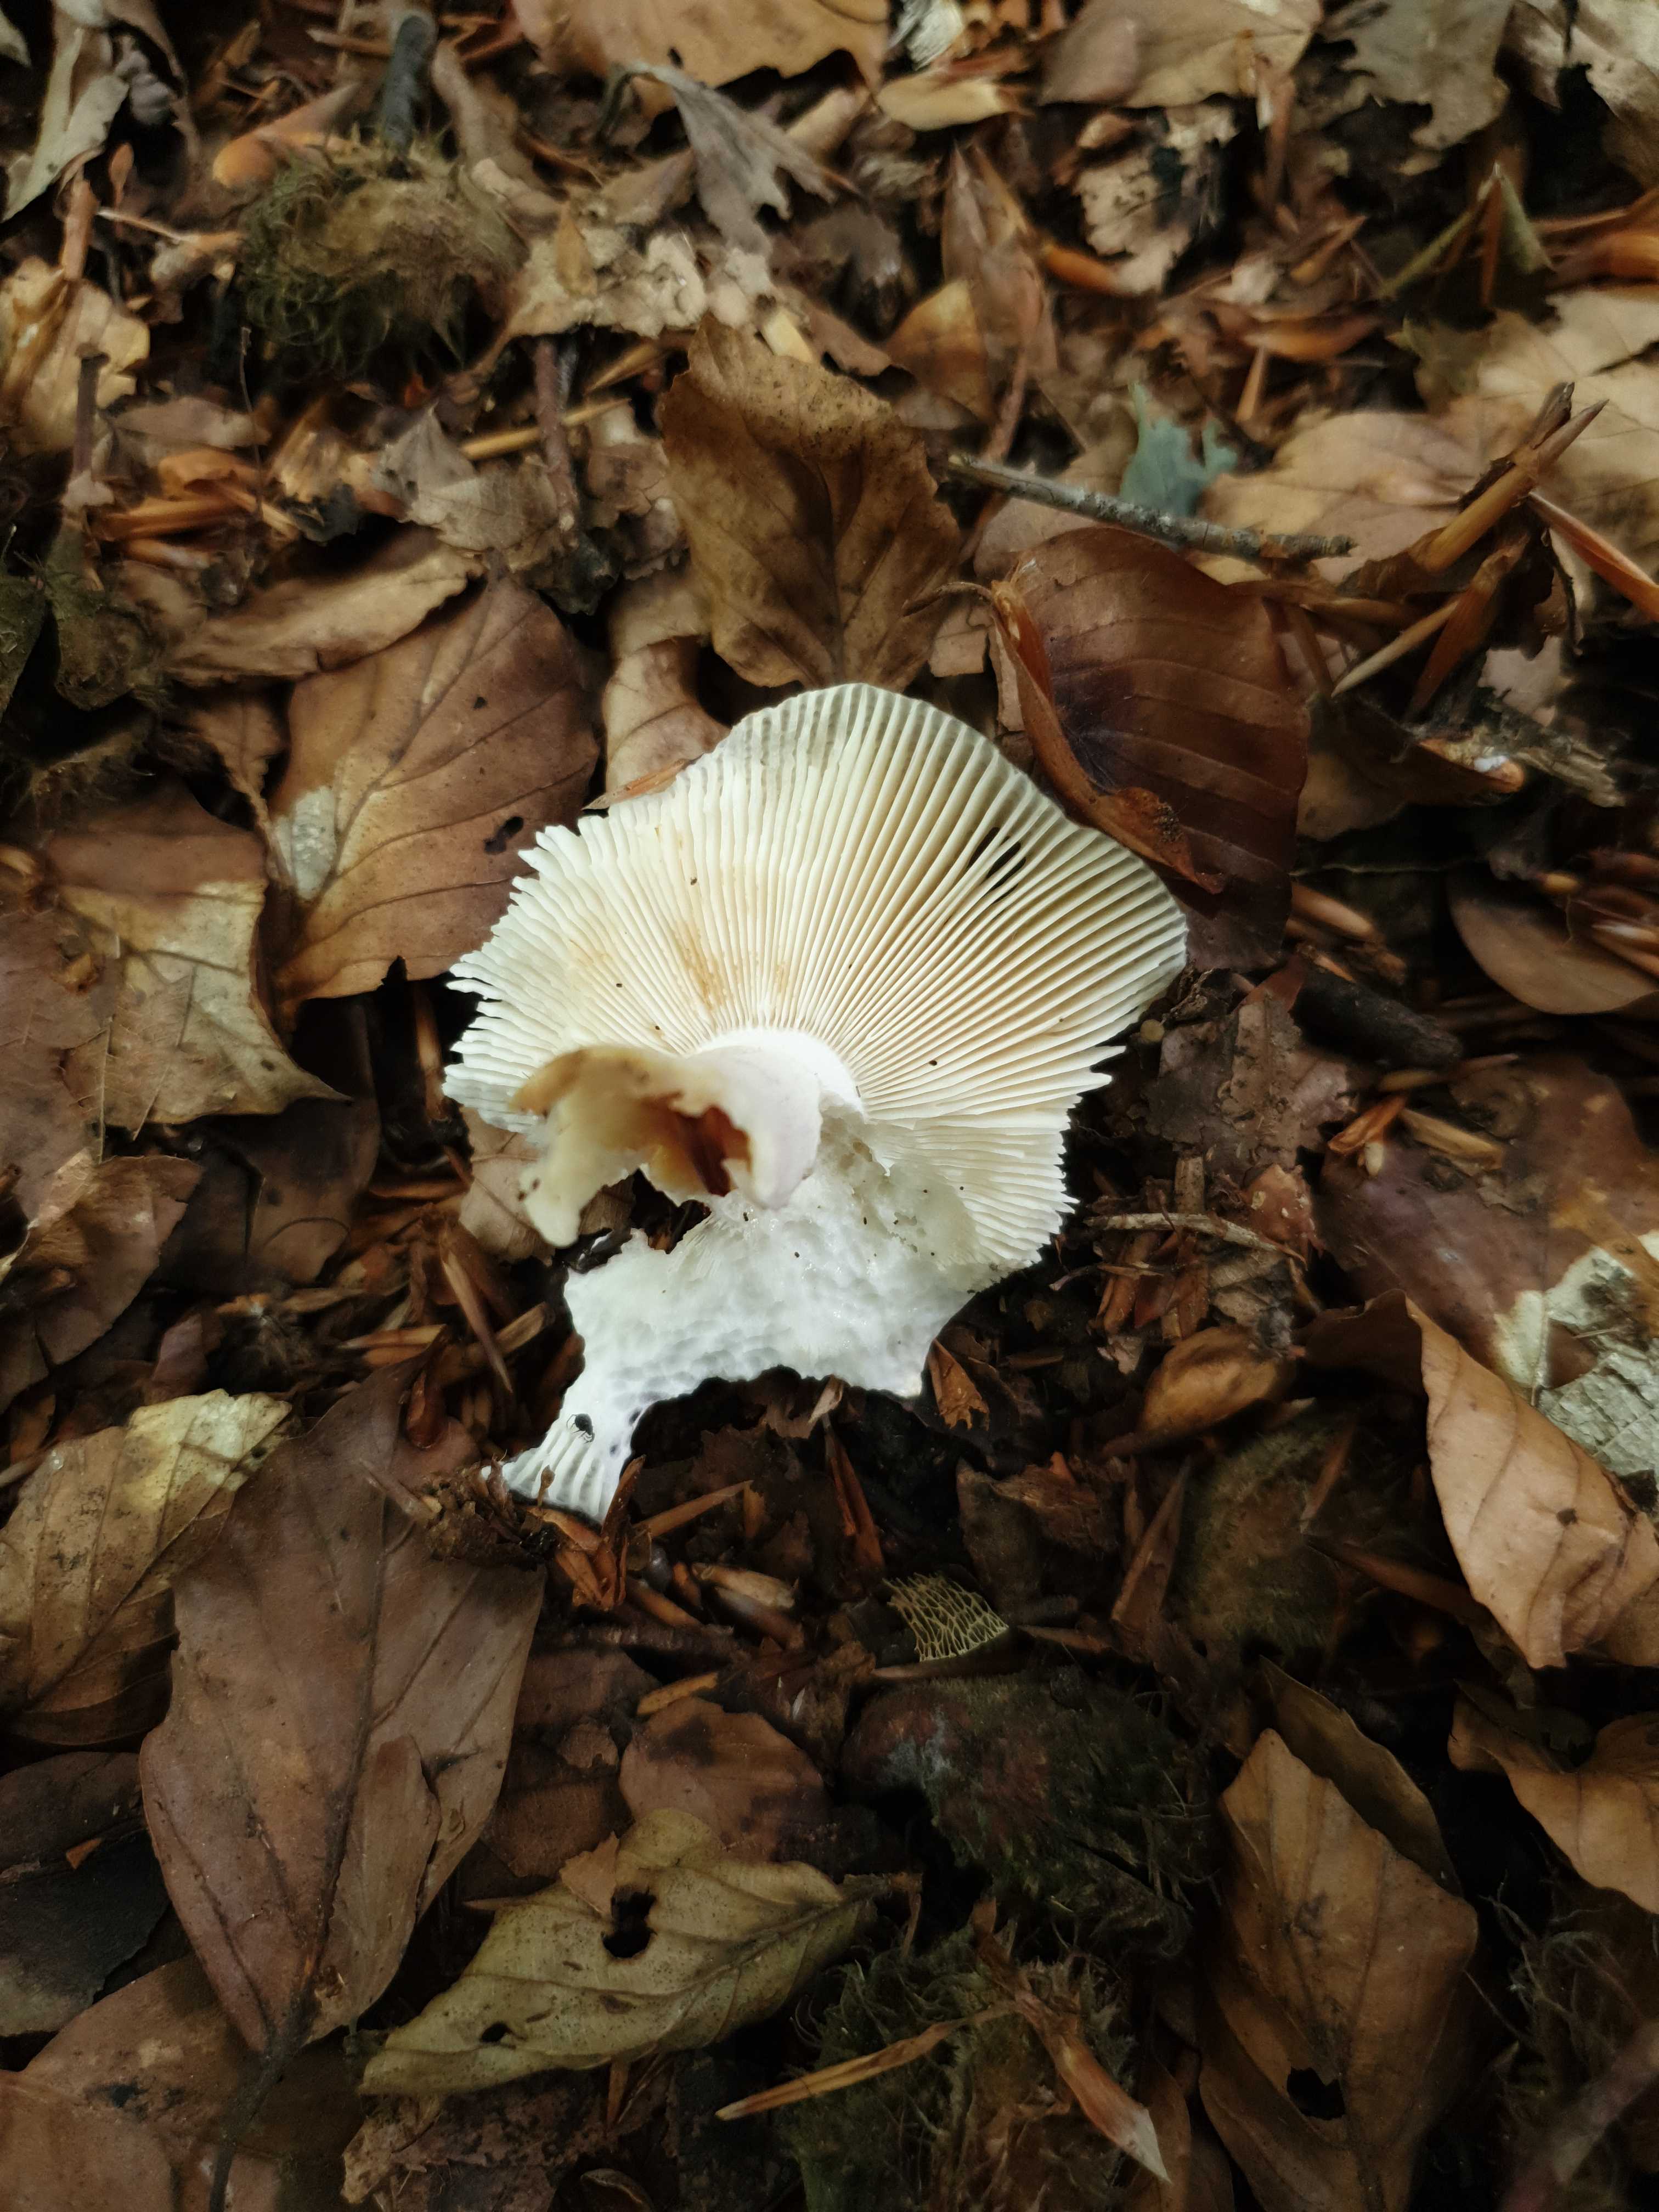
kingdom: Fungi
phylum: Basidiomycota
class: Agaricomycetes
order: Russulales
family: Russulaceae
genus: Russula
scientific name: Russula cyanoxantha
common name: broget skørhat
